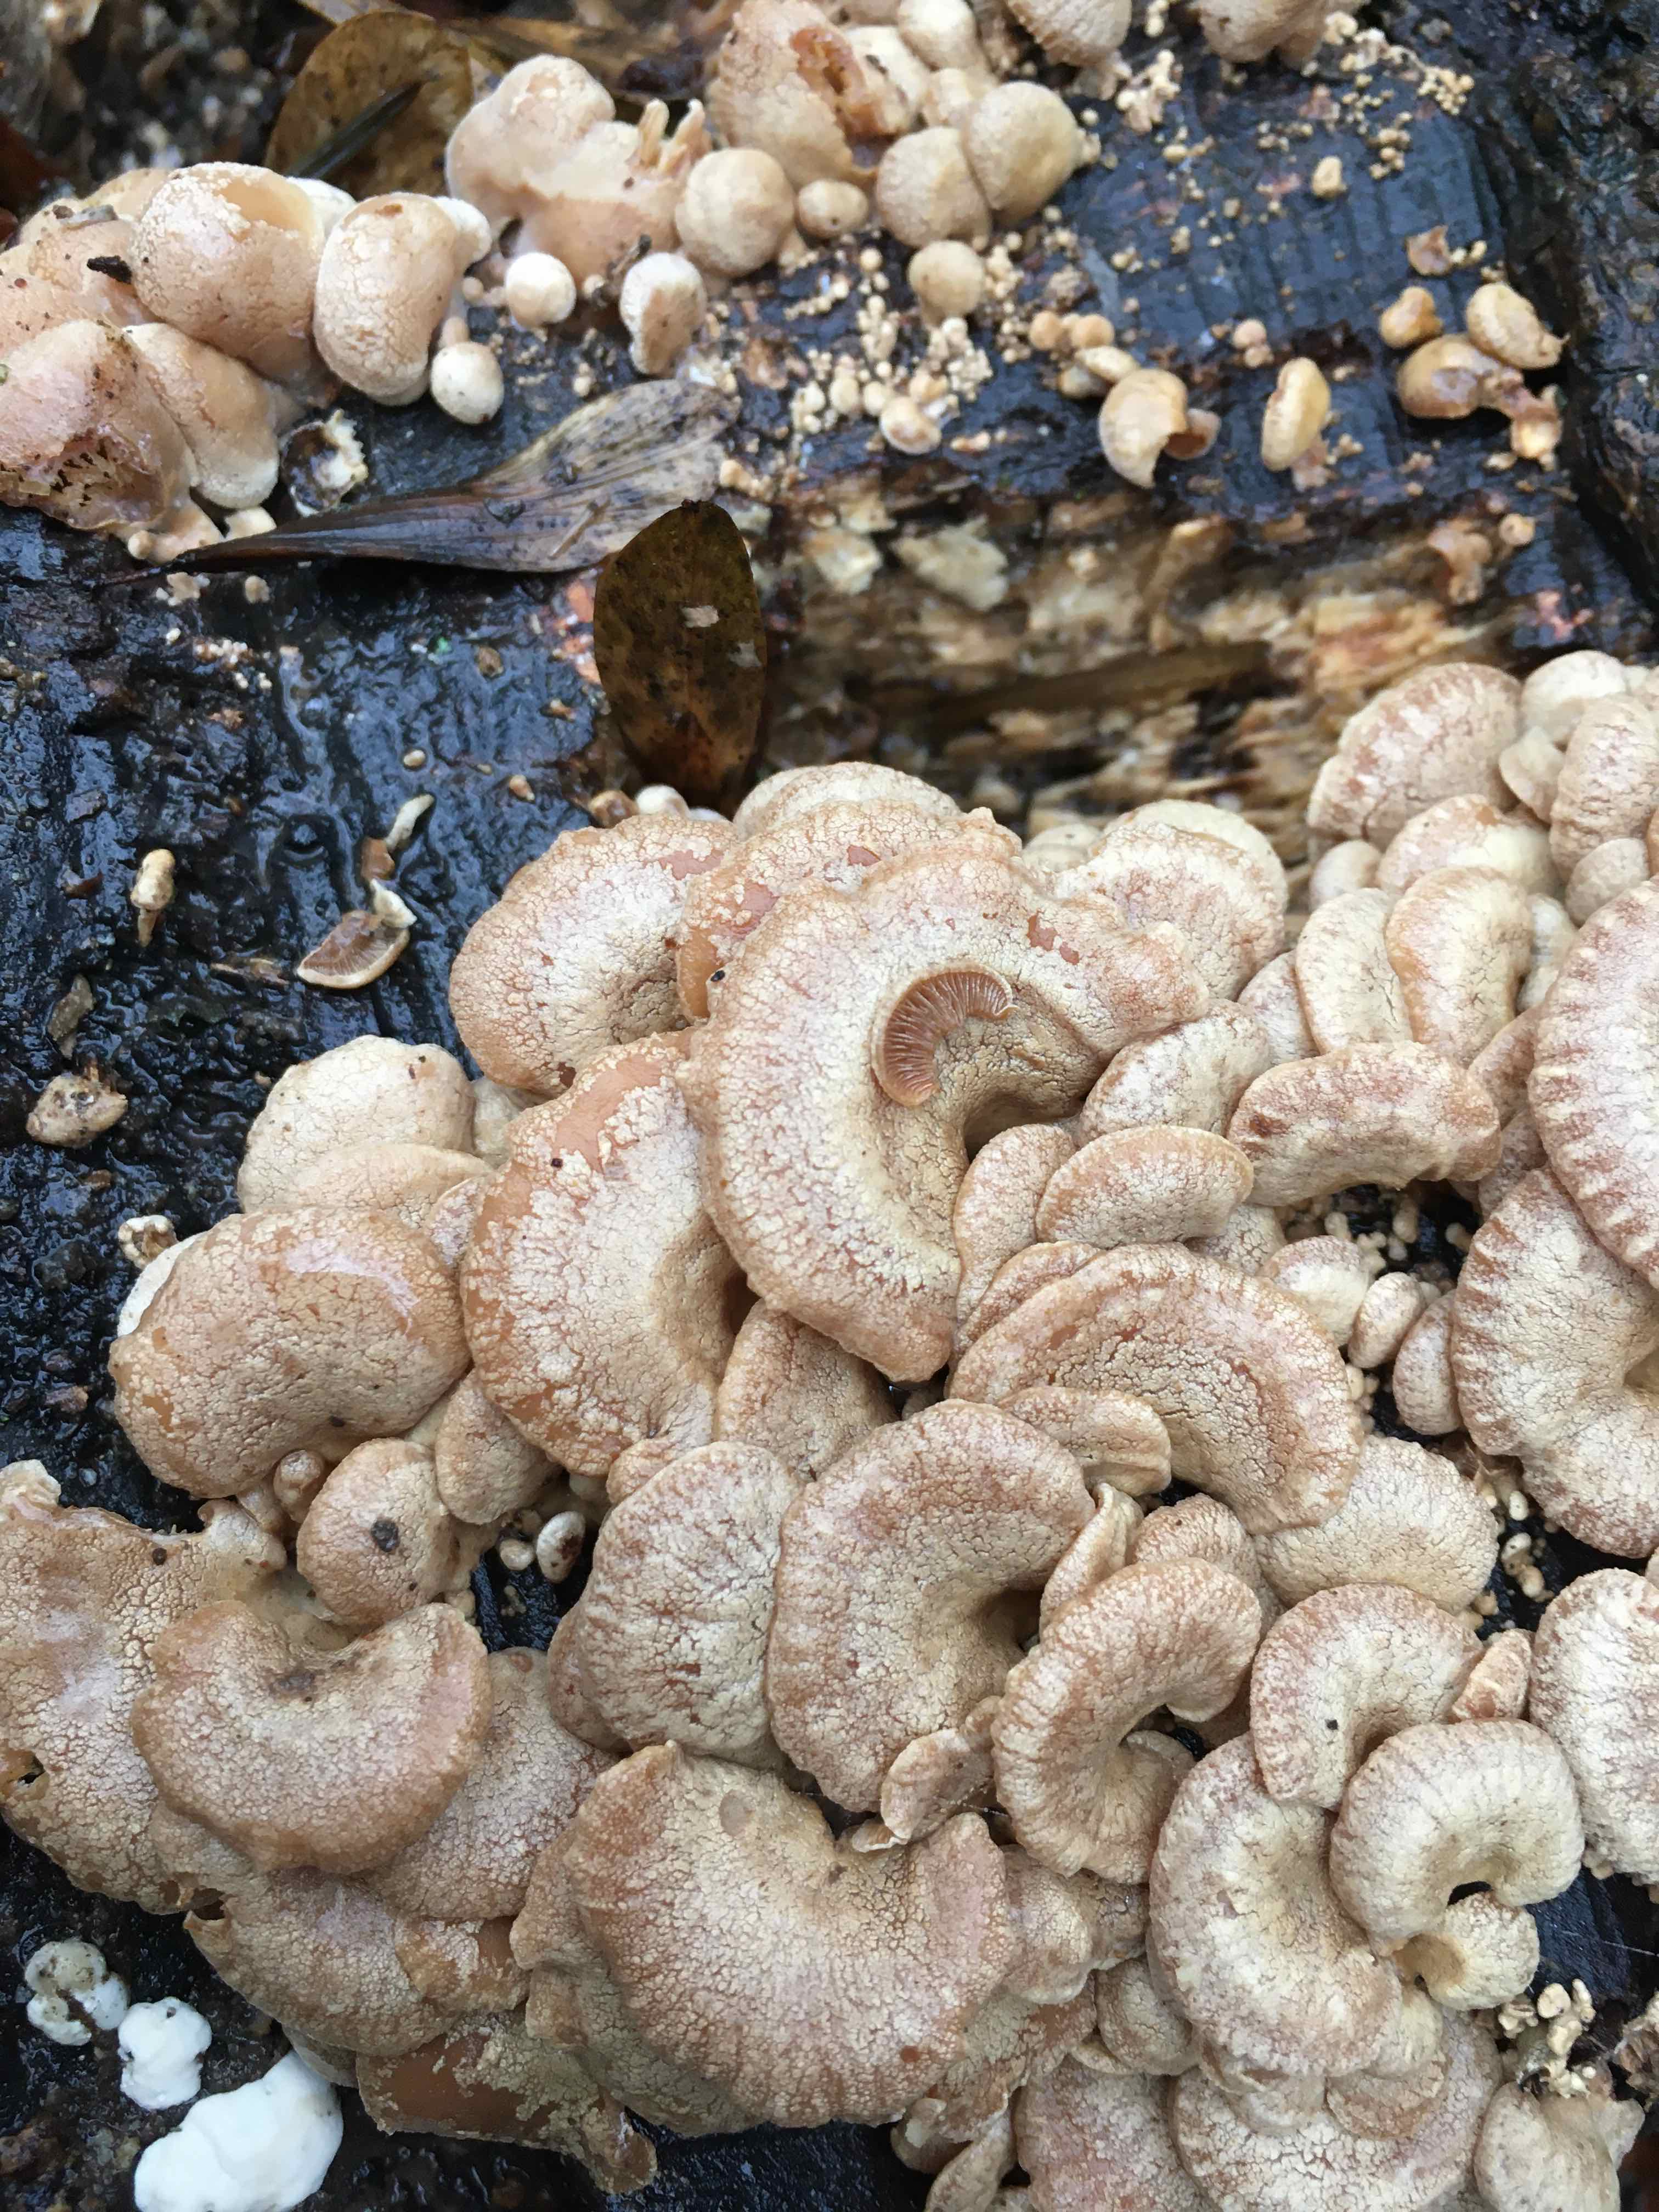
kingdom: Fungi
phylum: Basidiomycota
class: Agaricomycetes
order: Agaricales
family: Mycenaceae
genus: Panellus
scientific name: Panellus stipticus
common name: kliddet epaulethat
